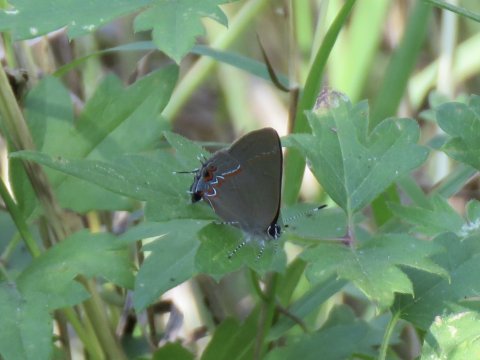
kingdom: Animalia
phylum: Arthropoda
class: Insecta
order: Lepidoptera
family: Lycaenidae
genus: Calycopis
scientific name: Calycopis isobeon
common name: Dusky-blue Groundstreak
